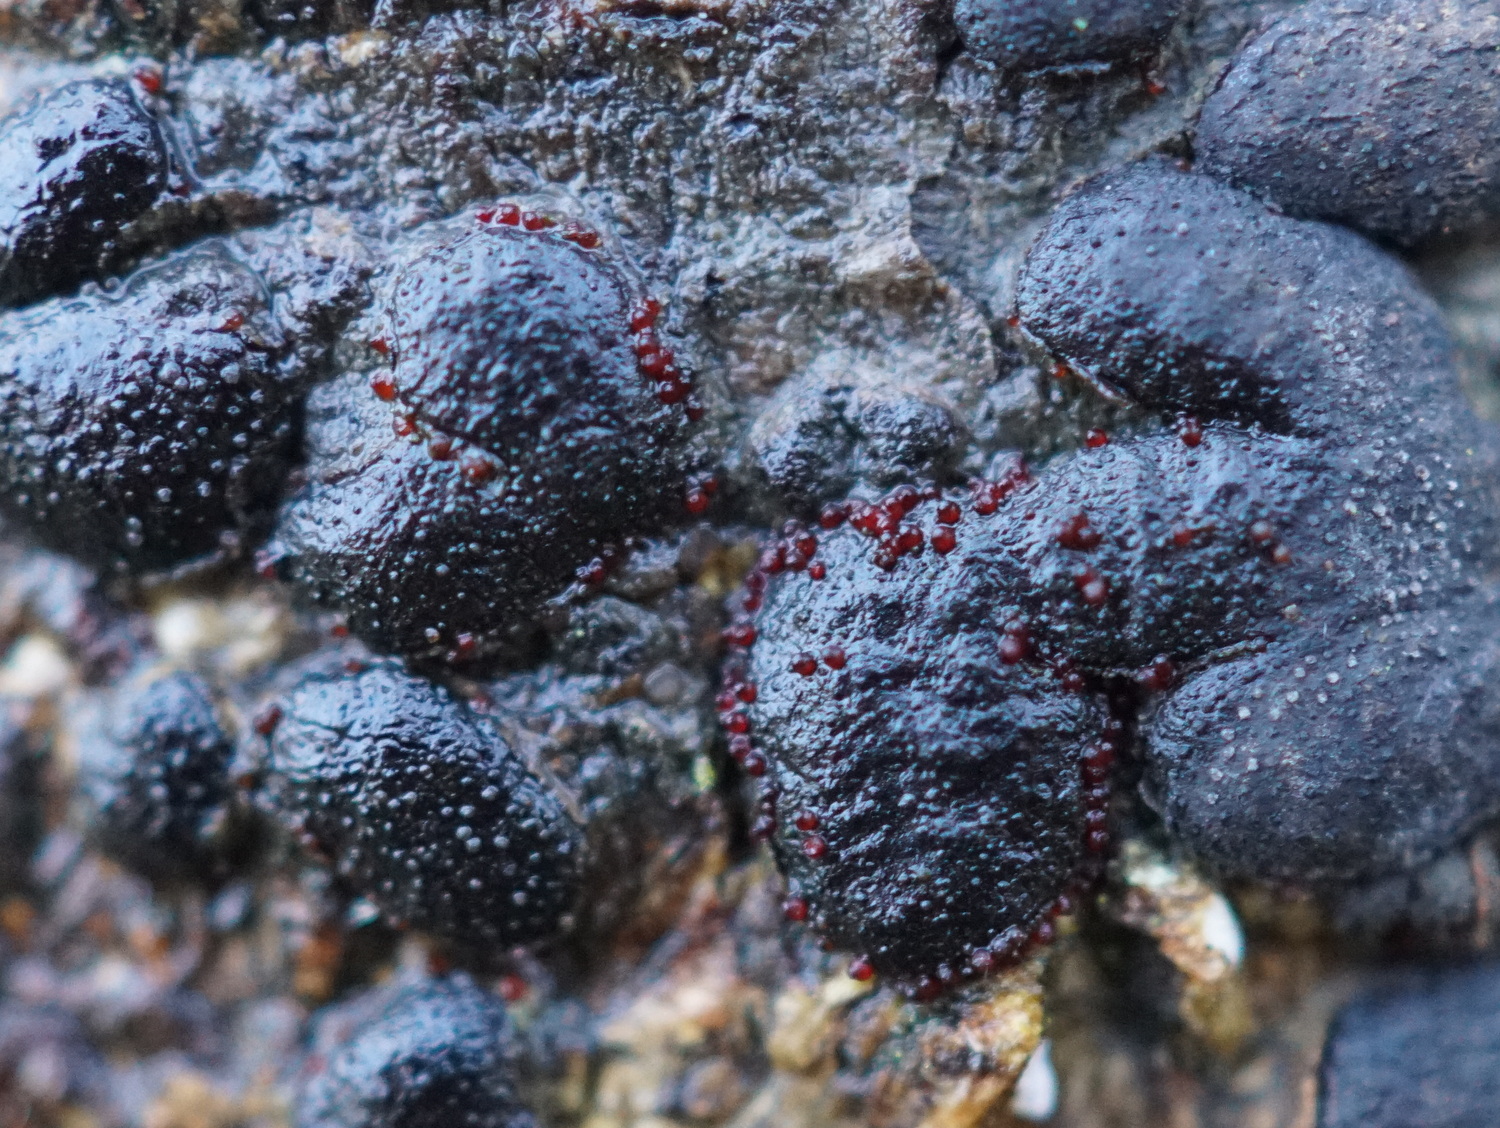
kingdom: Fungi
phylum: Ascomycota
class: Sordariomycetes
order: Hypocreales
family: Nectriaceae
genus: Dialonectria
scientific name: Dialonectria diatrypicola
